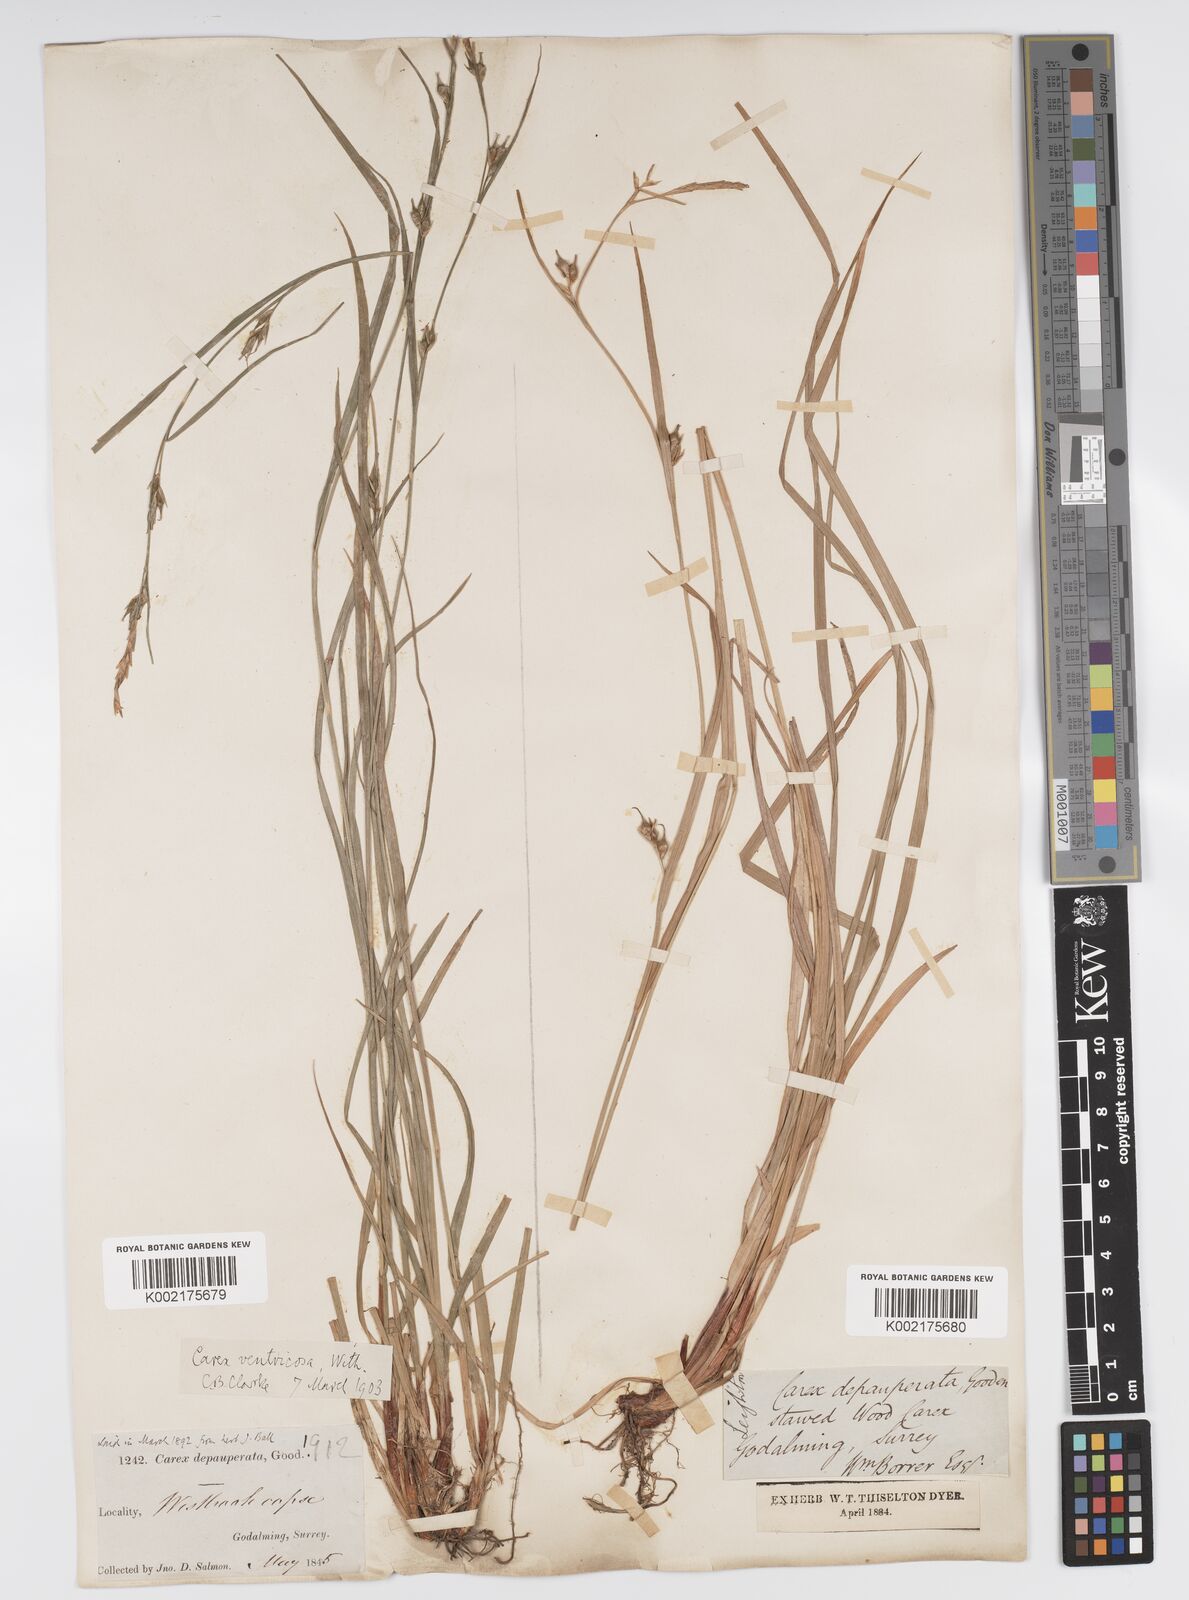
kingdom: Plantae
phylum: Tracheophyta
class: Liliopsida
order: Poales
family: Cyperaceae
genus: Carex
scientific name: Carex vaginata
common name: Sheathed sedge
